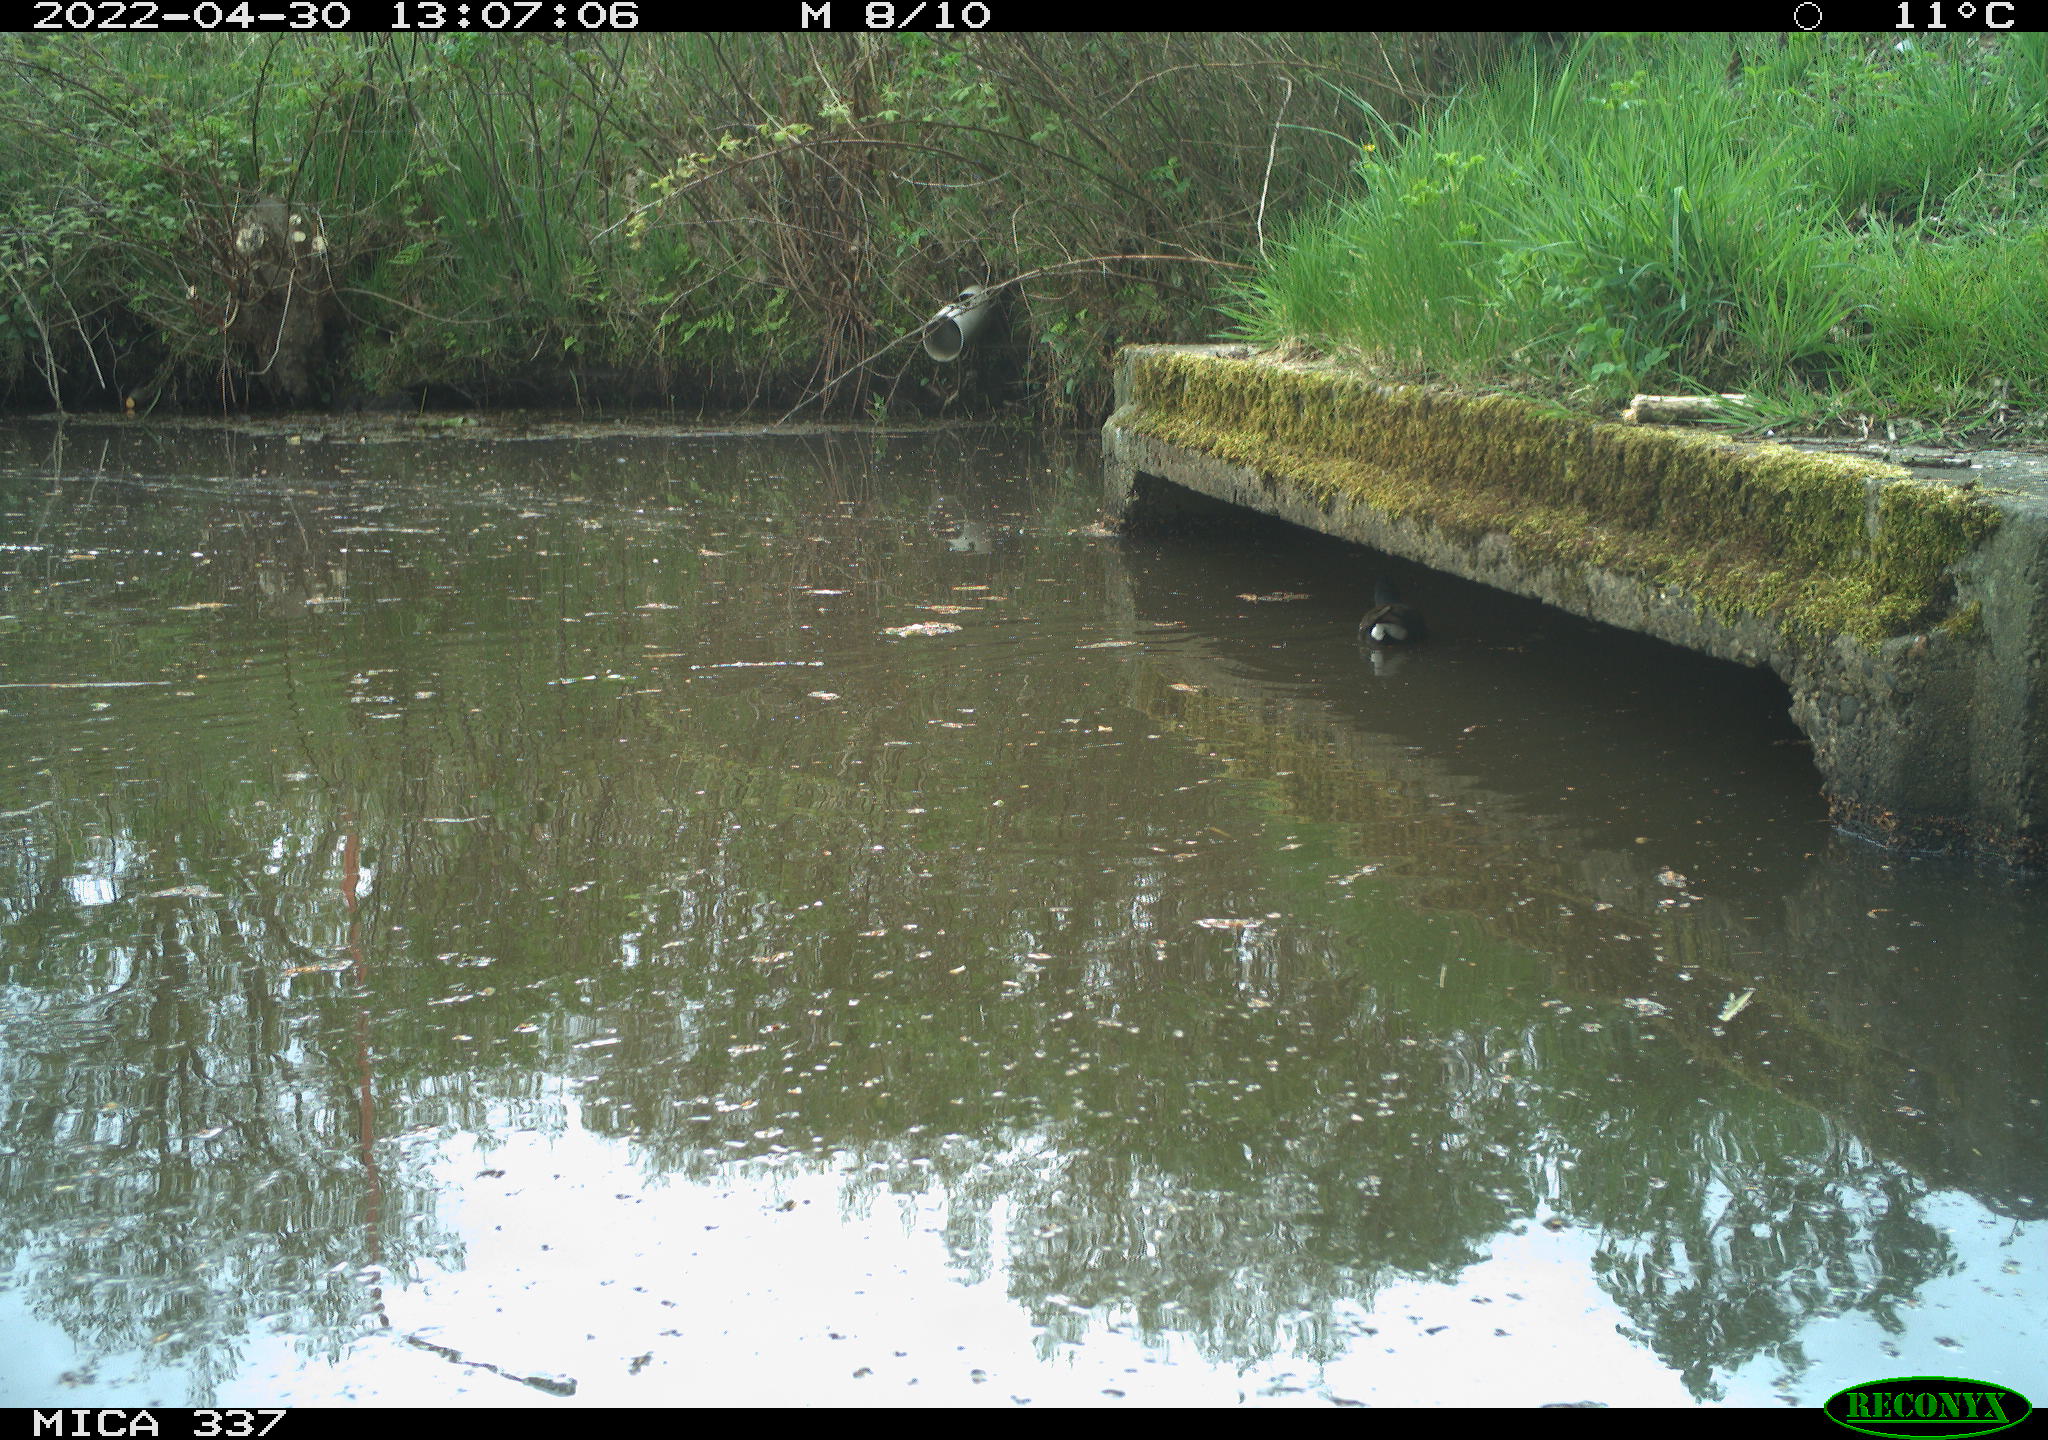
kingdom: Animalia
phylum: Chordata
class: Aves
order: Gruiformes
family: Rallidae
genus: Gallinula
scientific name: Gallinula chloropus
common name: Common moorhen
